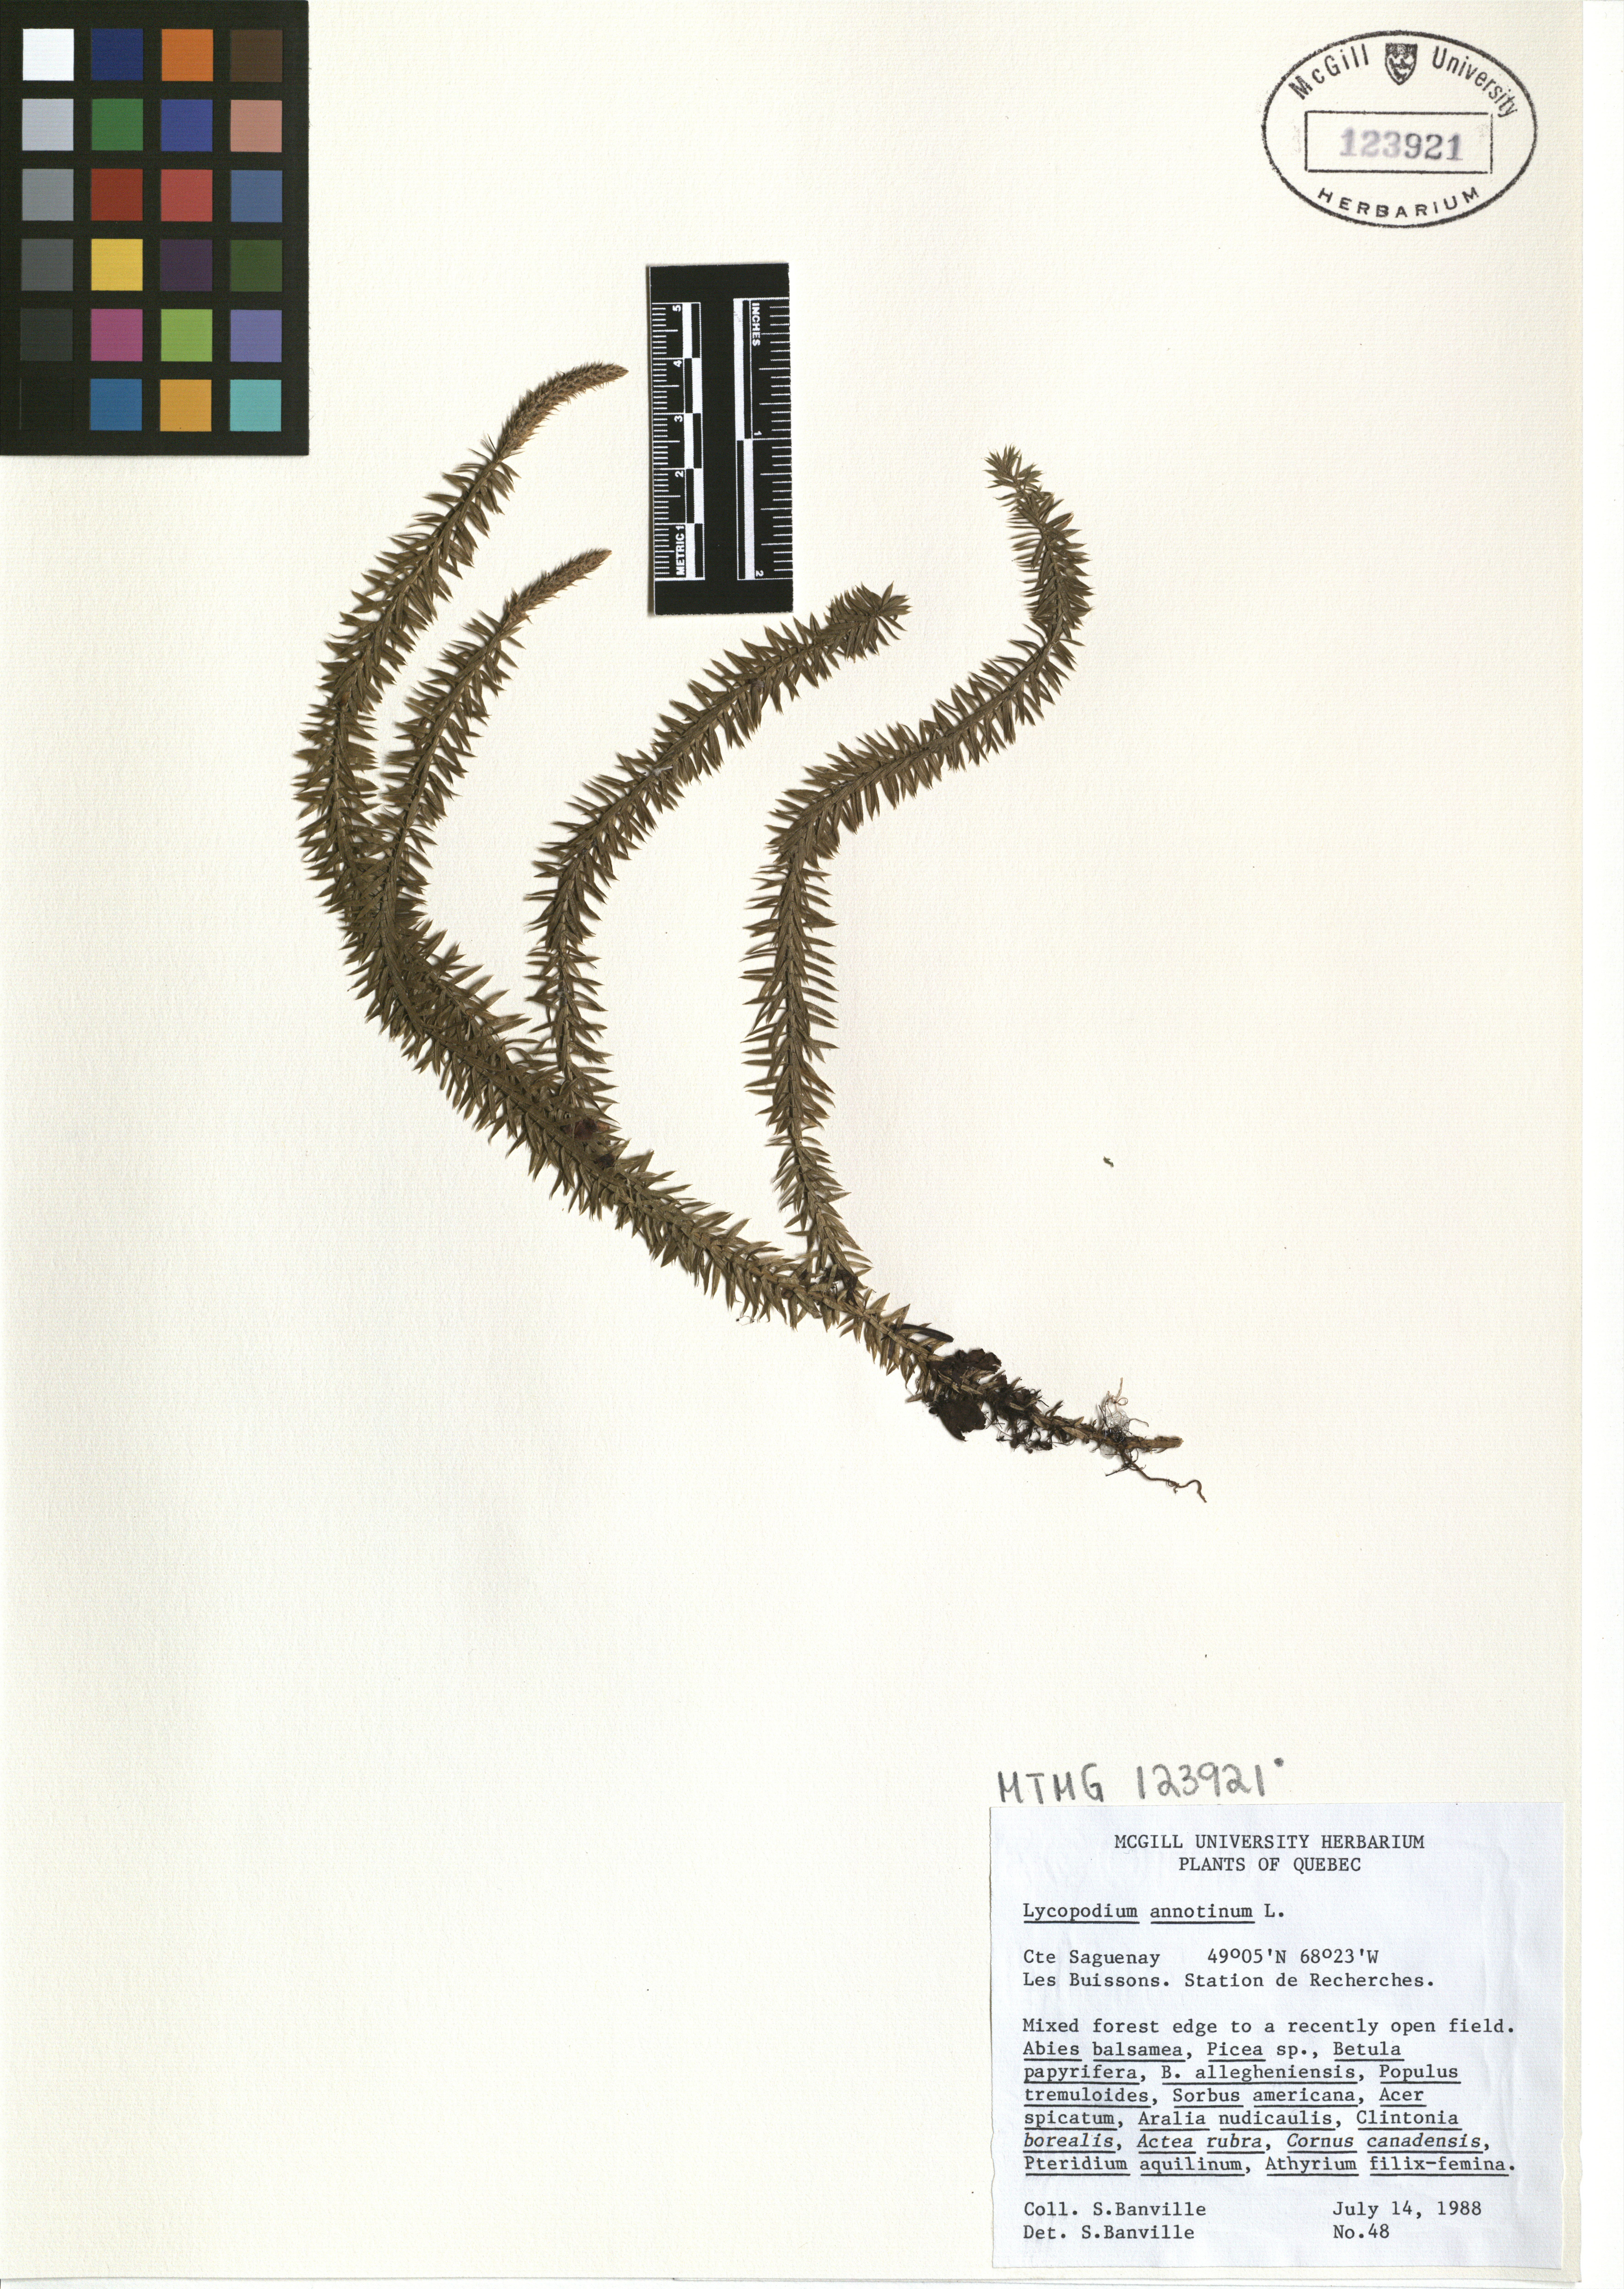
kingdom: Plantae
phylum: Tracheophyta
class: Lycopodiopsida
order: Lycopodiales
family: Lycopodiaceae
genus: Spinulum
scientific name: Spinulum annotinum
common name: Interrupted club-moss
